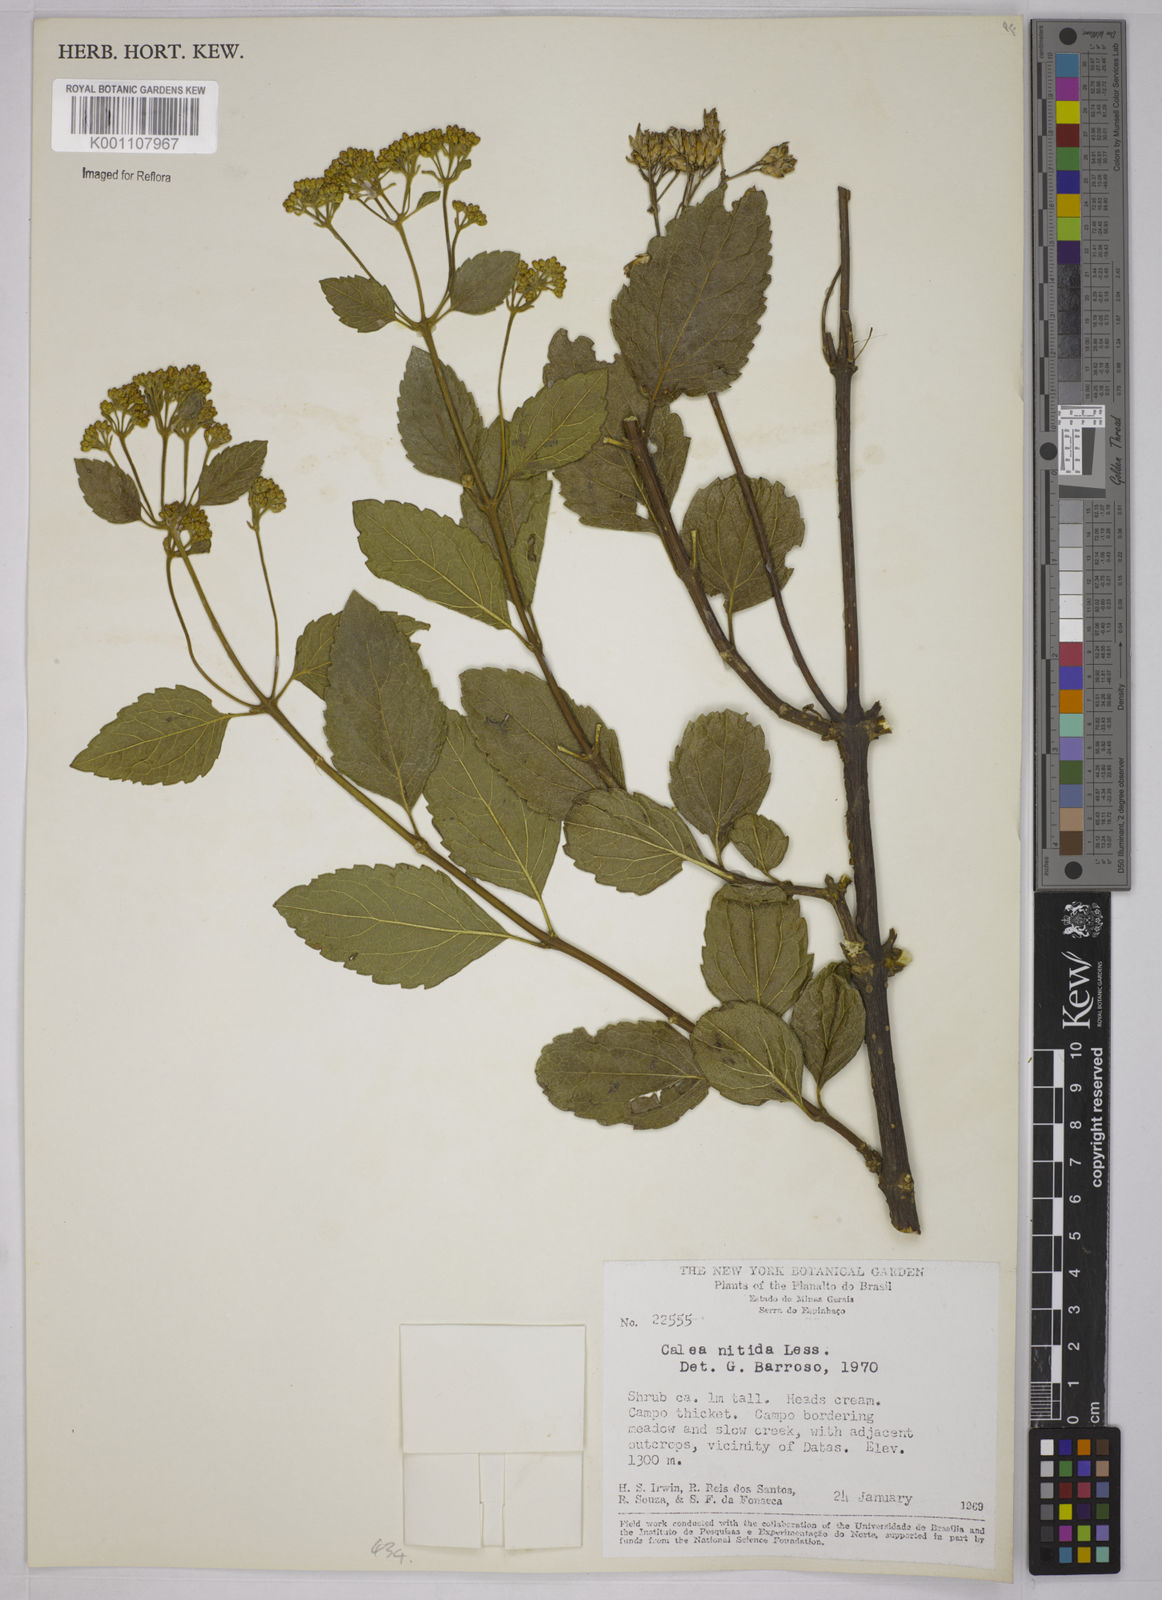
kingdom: Plantae
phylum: Tracheophyta
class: Magnoliopsida
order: Asterales
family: Asteraceae
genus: Calea
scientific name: Calea nitida
